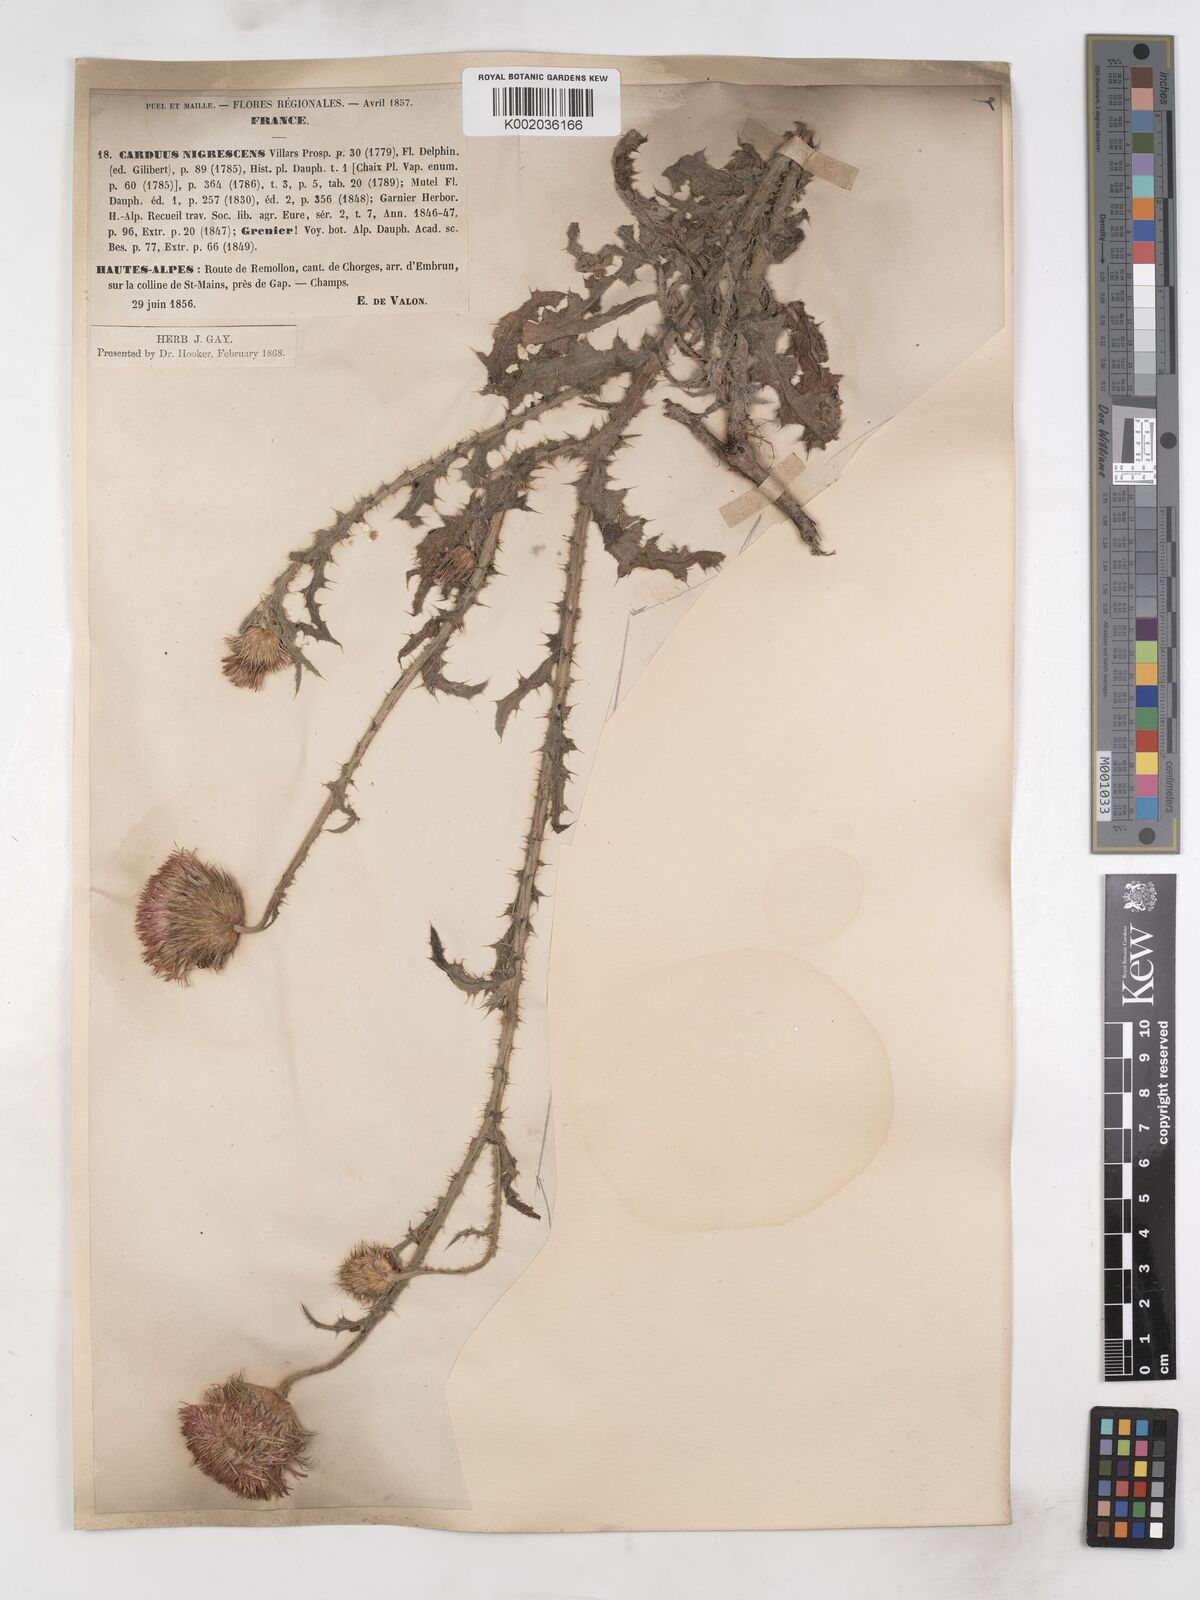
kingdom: Plantae
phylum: Tracheophyta
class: Magnoliopsida
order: Asterales
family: Asteraceae
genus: Carduus
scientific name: Carduus nigrescens
